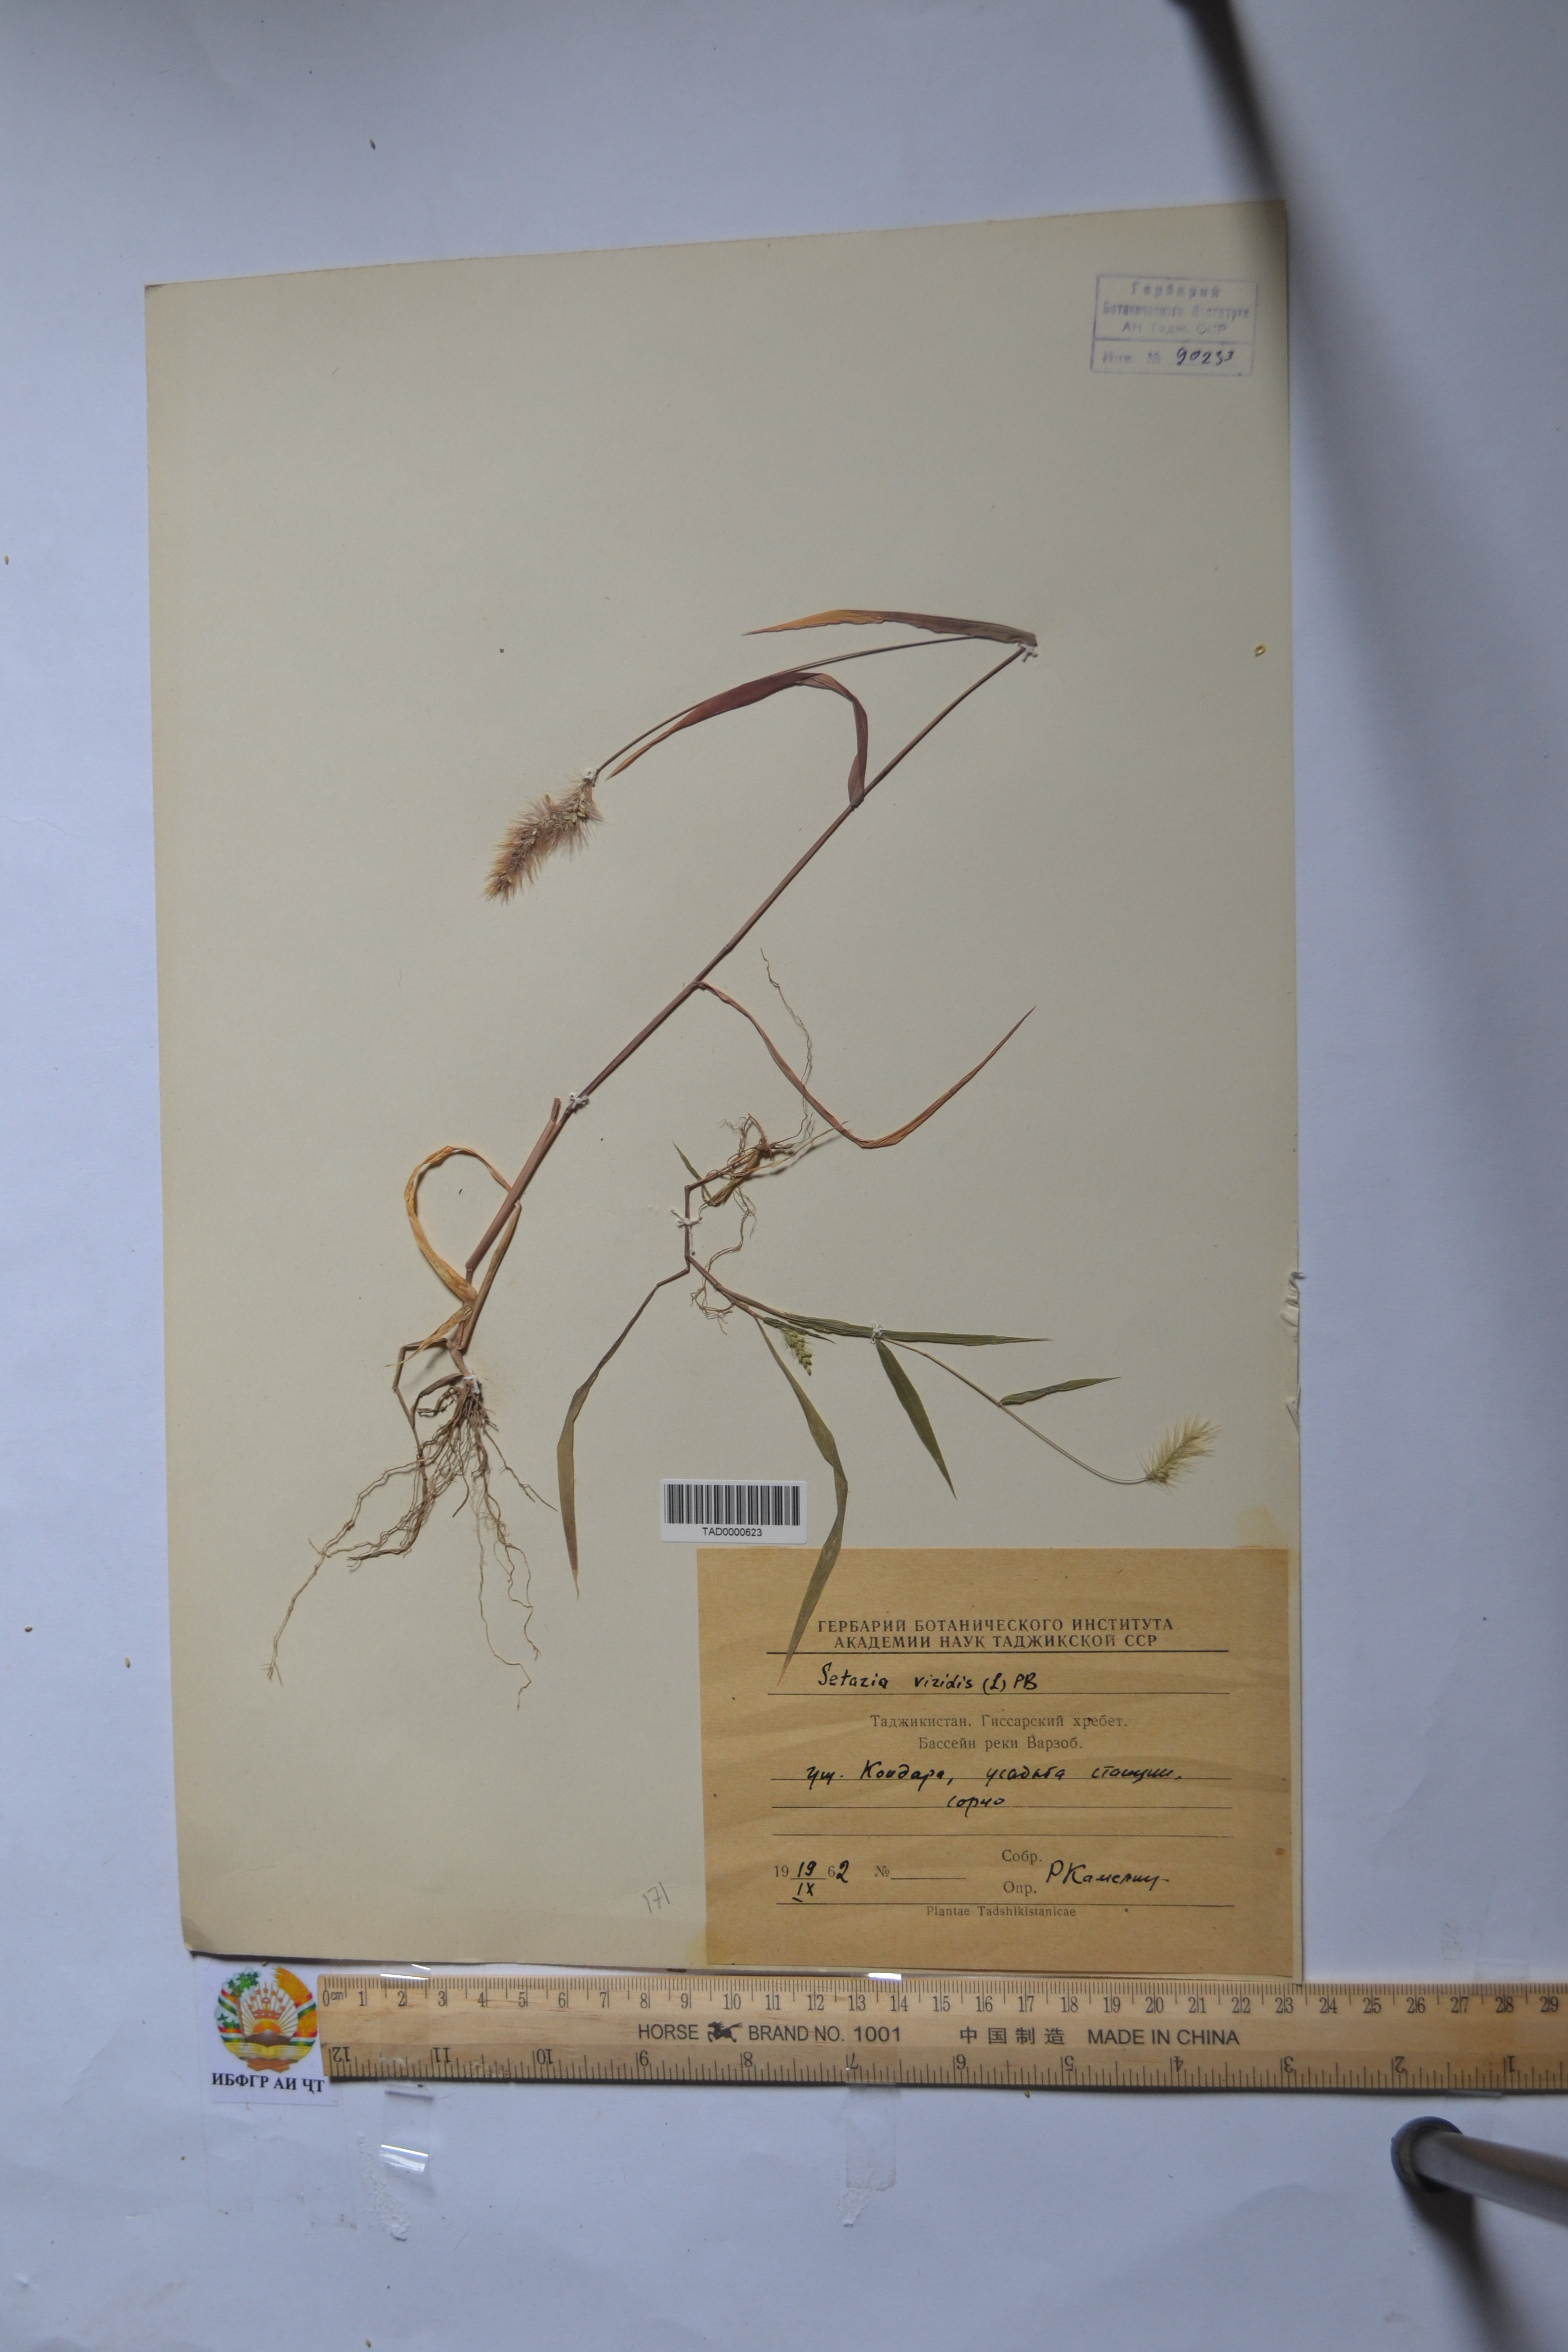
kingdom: Plantae
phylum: Tracheophyta
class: Liliopsida
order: Poales
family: Poaceae
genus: Setaria
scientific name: Setaria viridis
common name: Green bristlegrass
